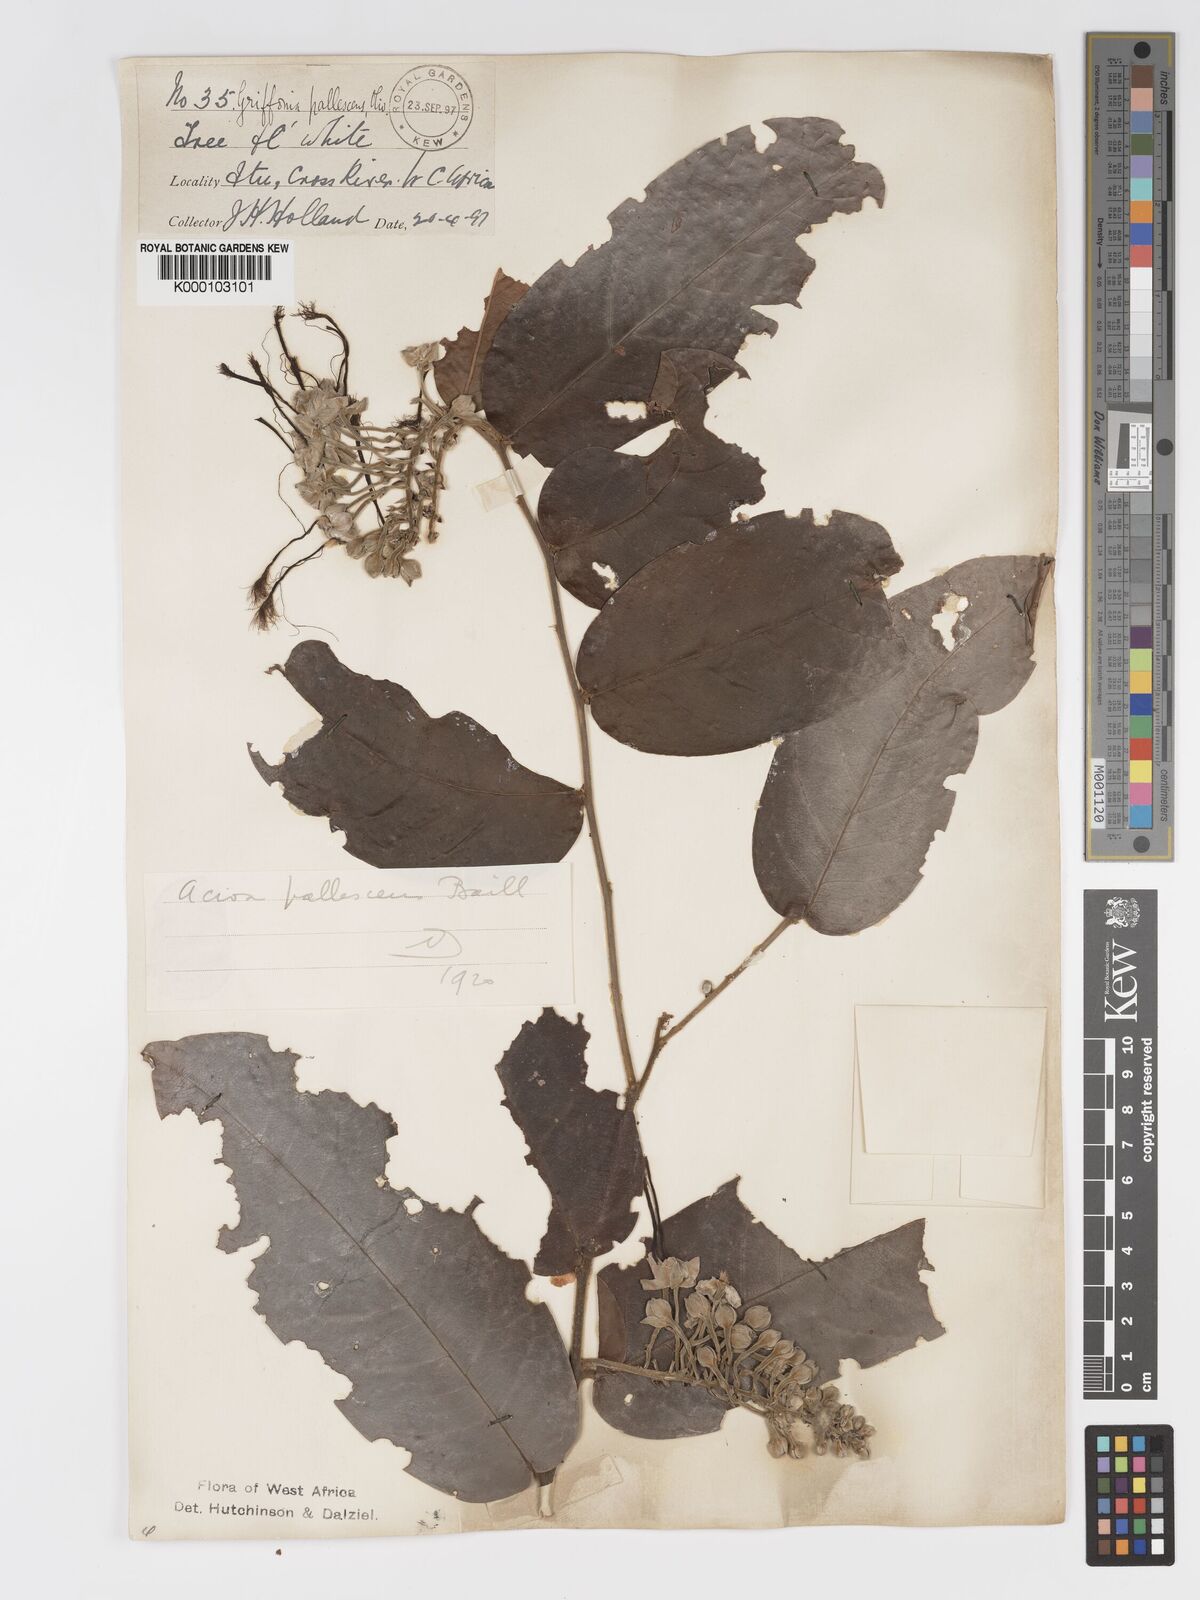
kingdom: Plantae
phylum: Tracheophyta
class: Magnoliopsida
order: Malpighiales
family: Chrysobalanaceae
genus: Dactyladenia
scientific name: Dactyladenia pallescens
